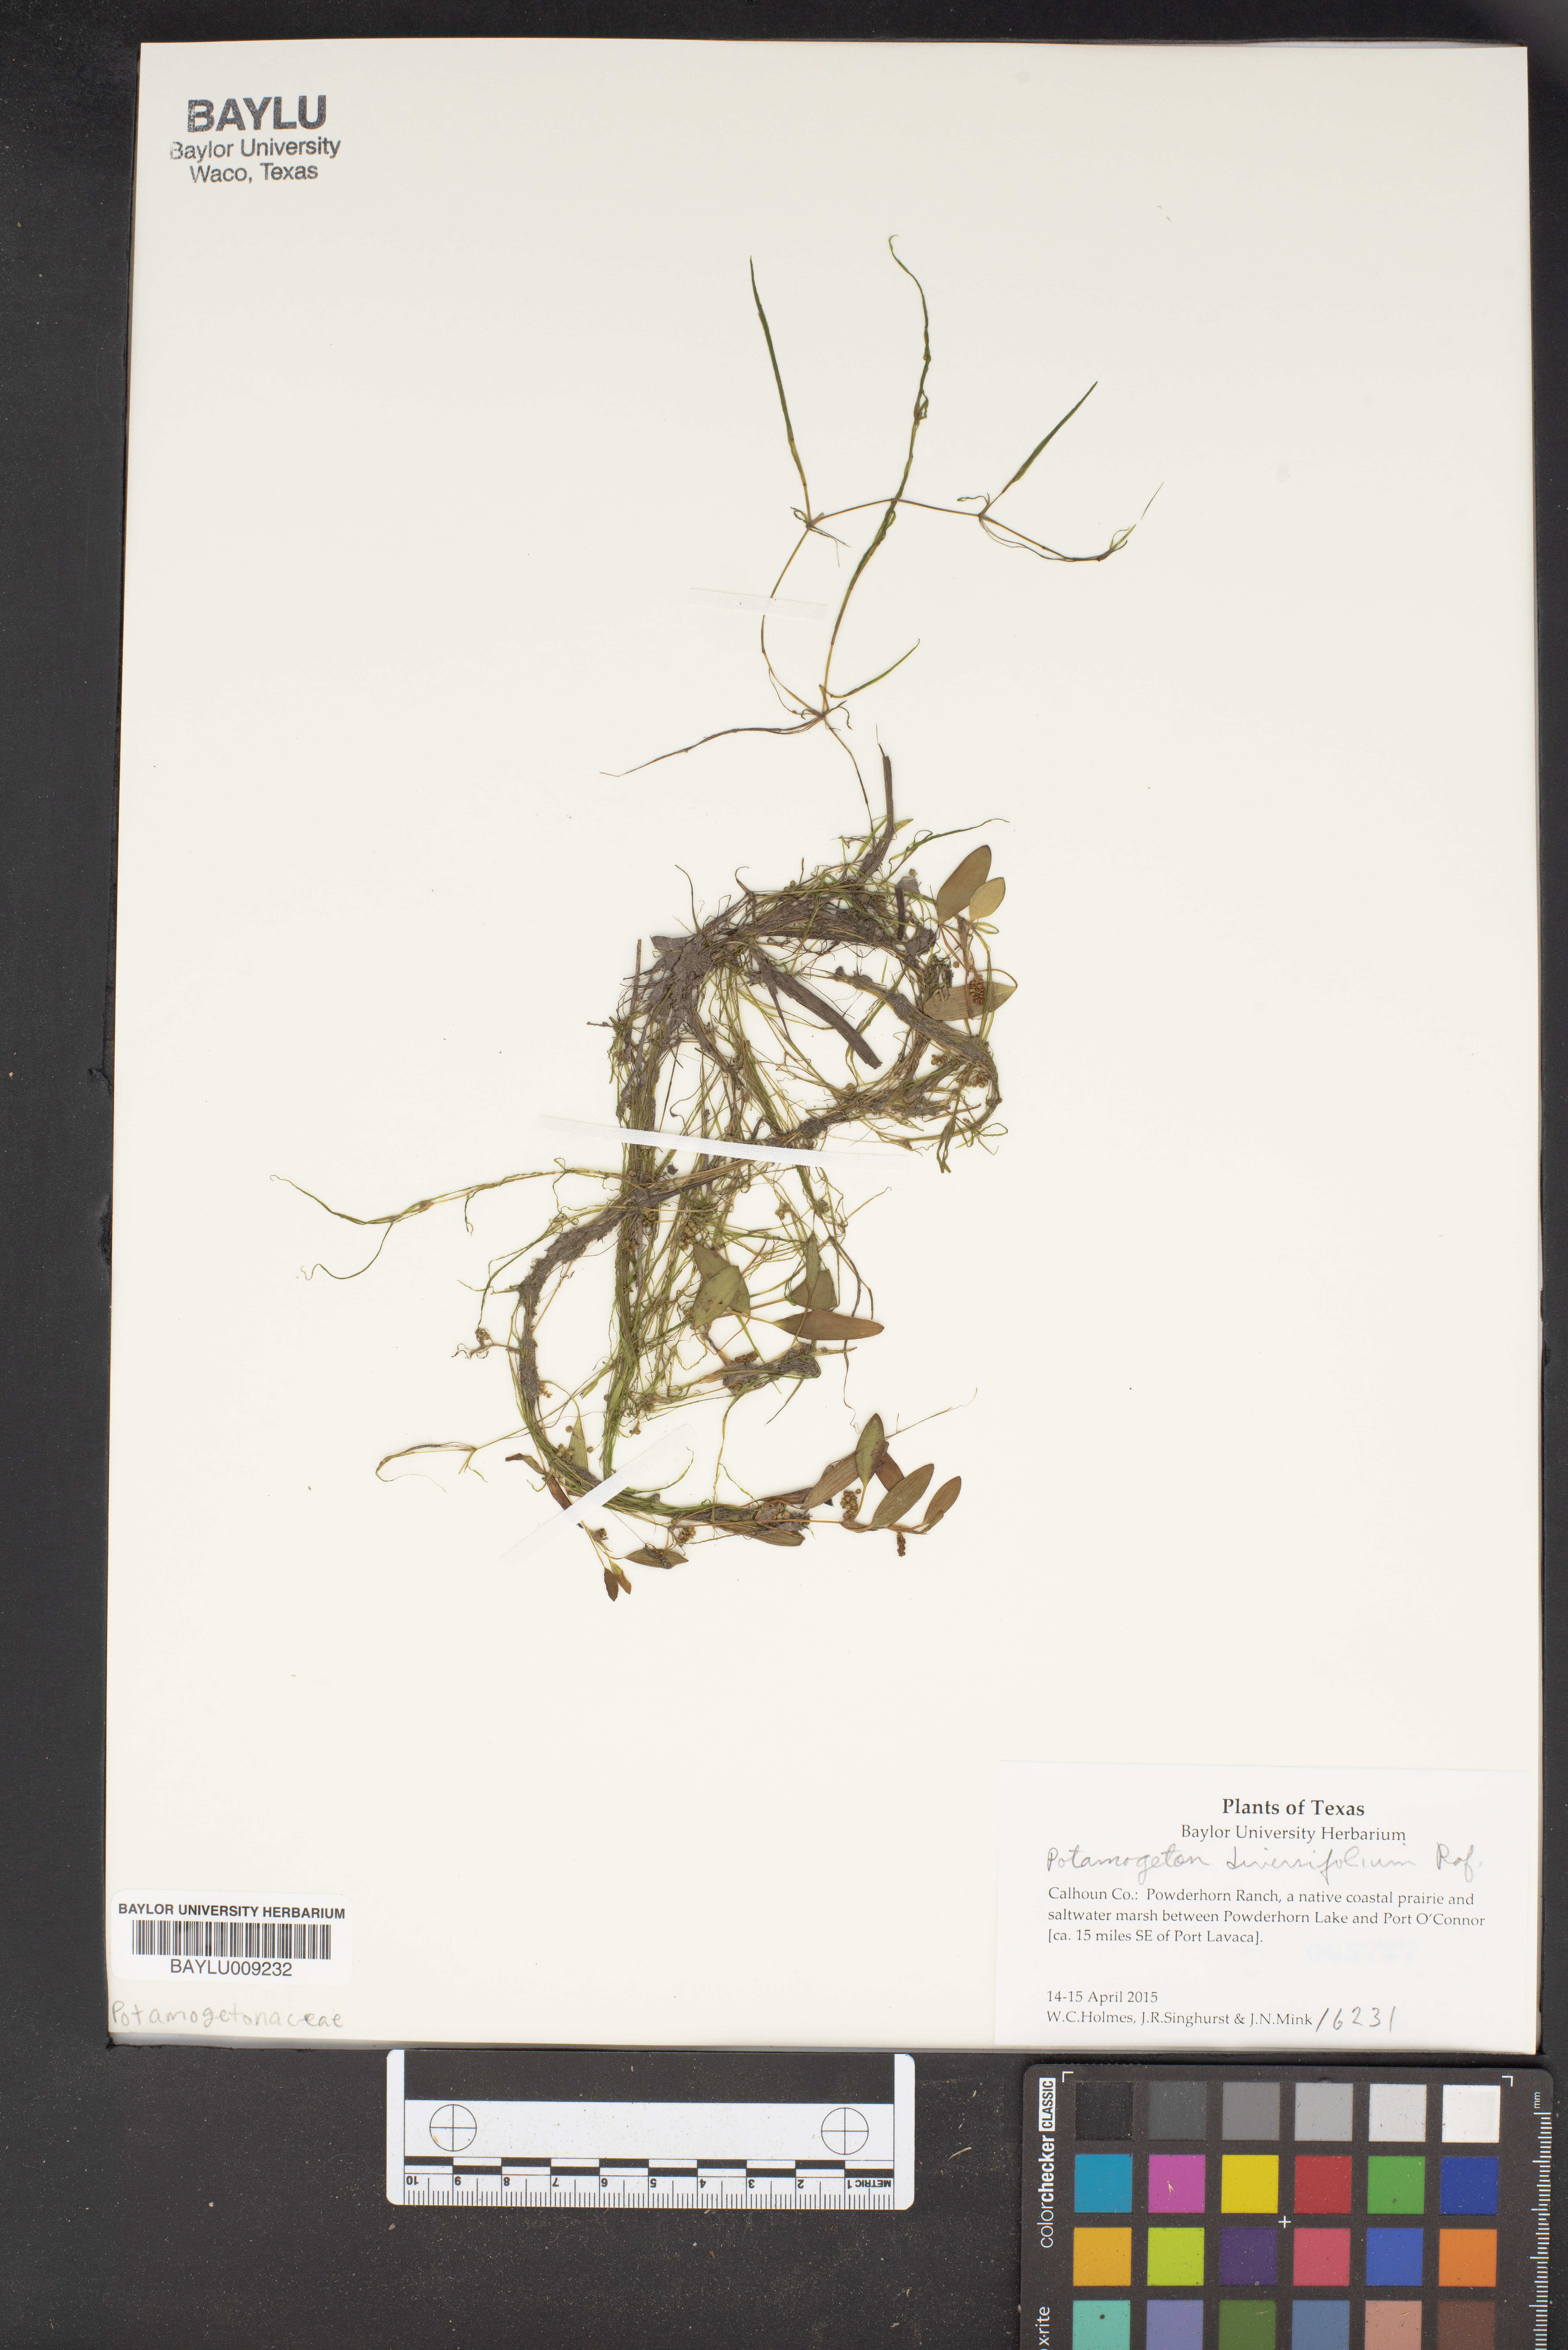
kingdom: Plantae
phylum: Tracheophyta
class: Liliopsida
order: Alismatales
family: Potamogetonaceae
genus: Potamogeton
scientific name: Potamogeton diversifolius
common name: Water-thread pondweed
